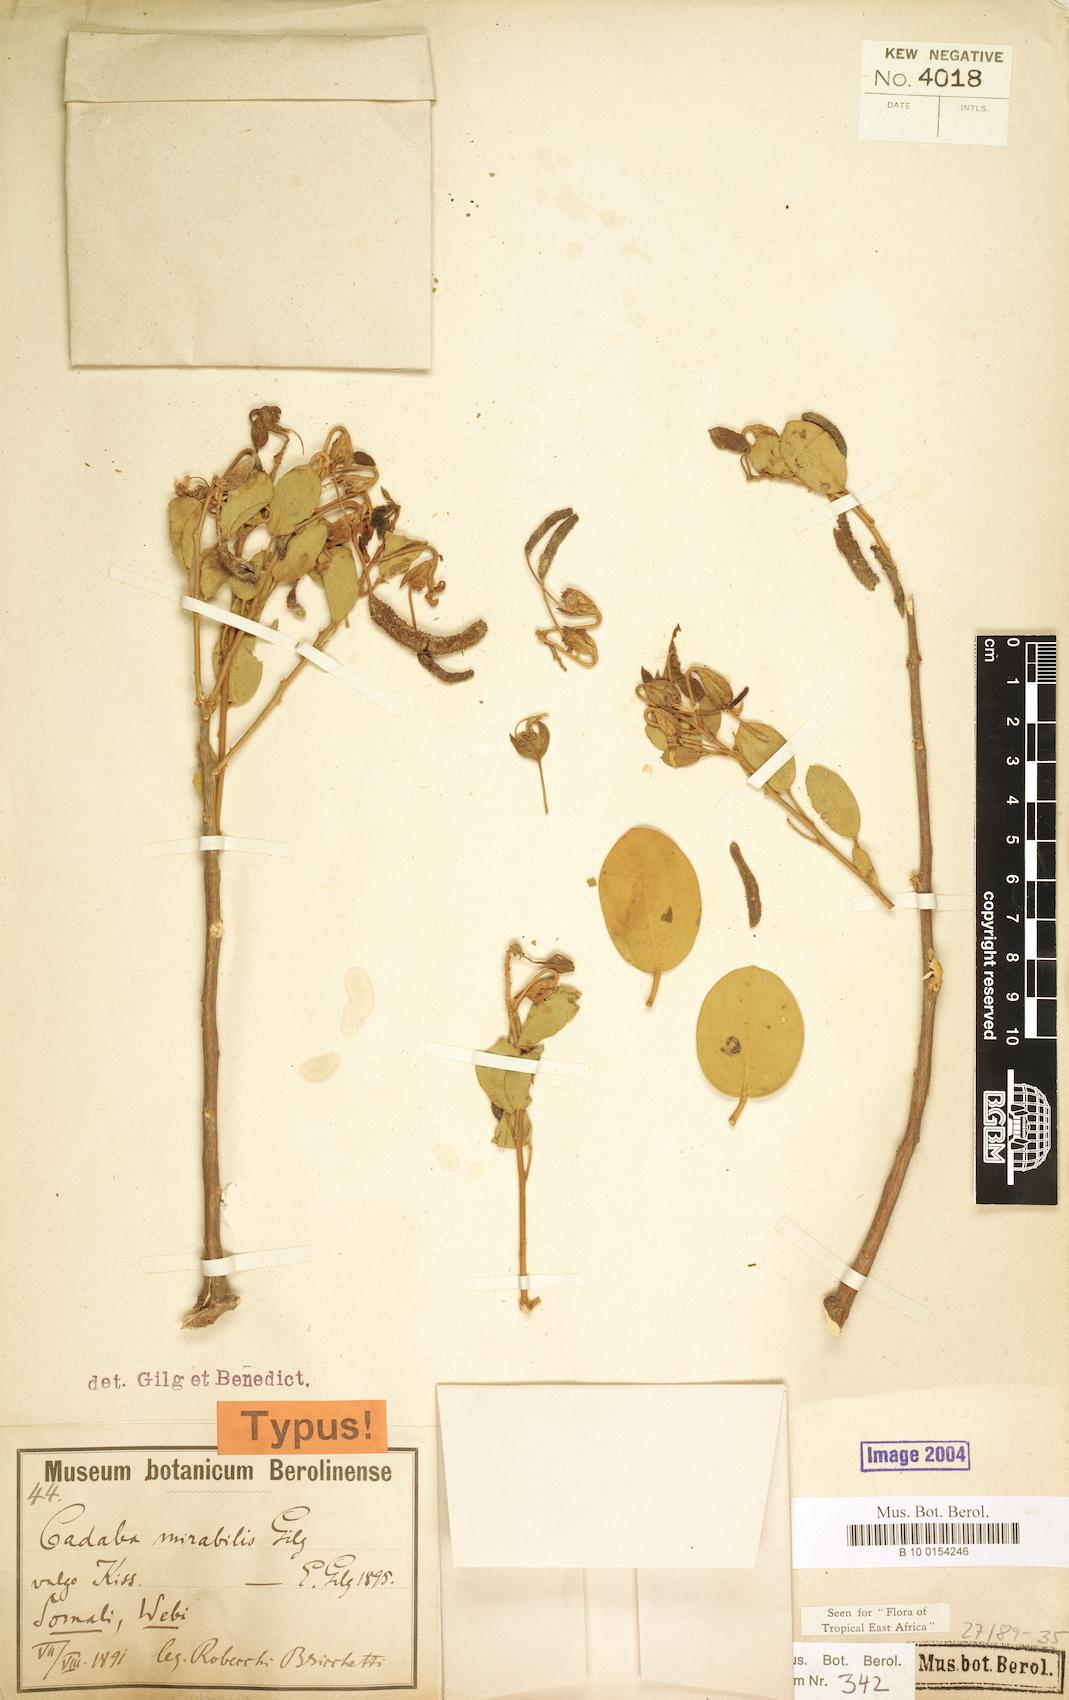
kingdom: Plantae
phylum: Tracheophyta
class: Magnoliopsida
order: Brassicales
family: Capparaceae
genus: Cadaba
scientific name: Cadaba mirabilis
